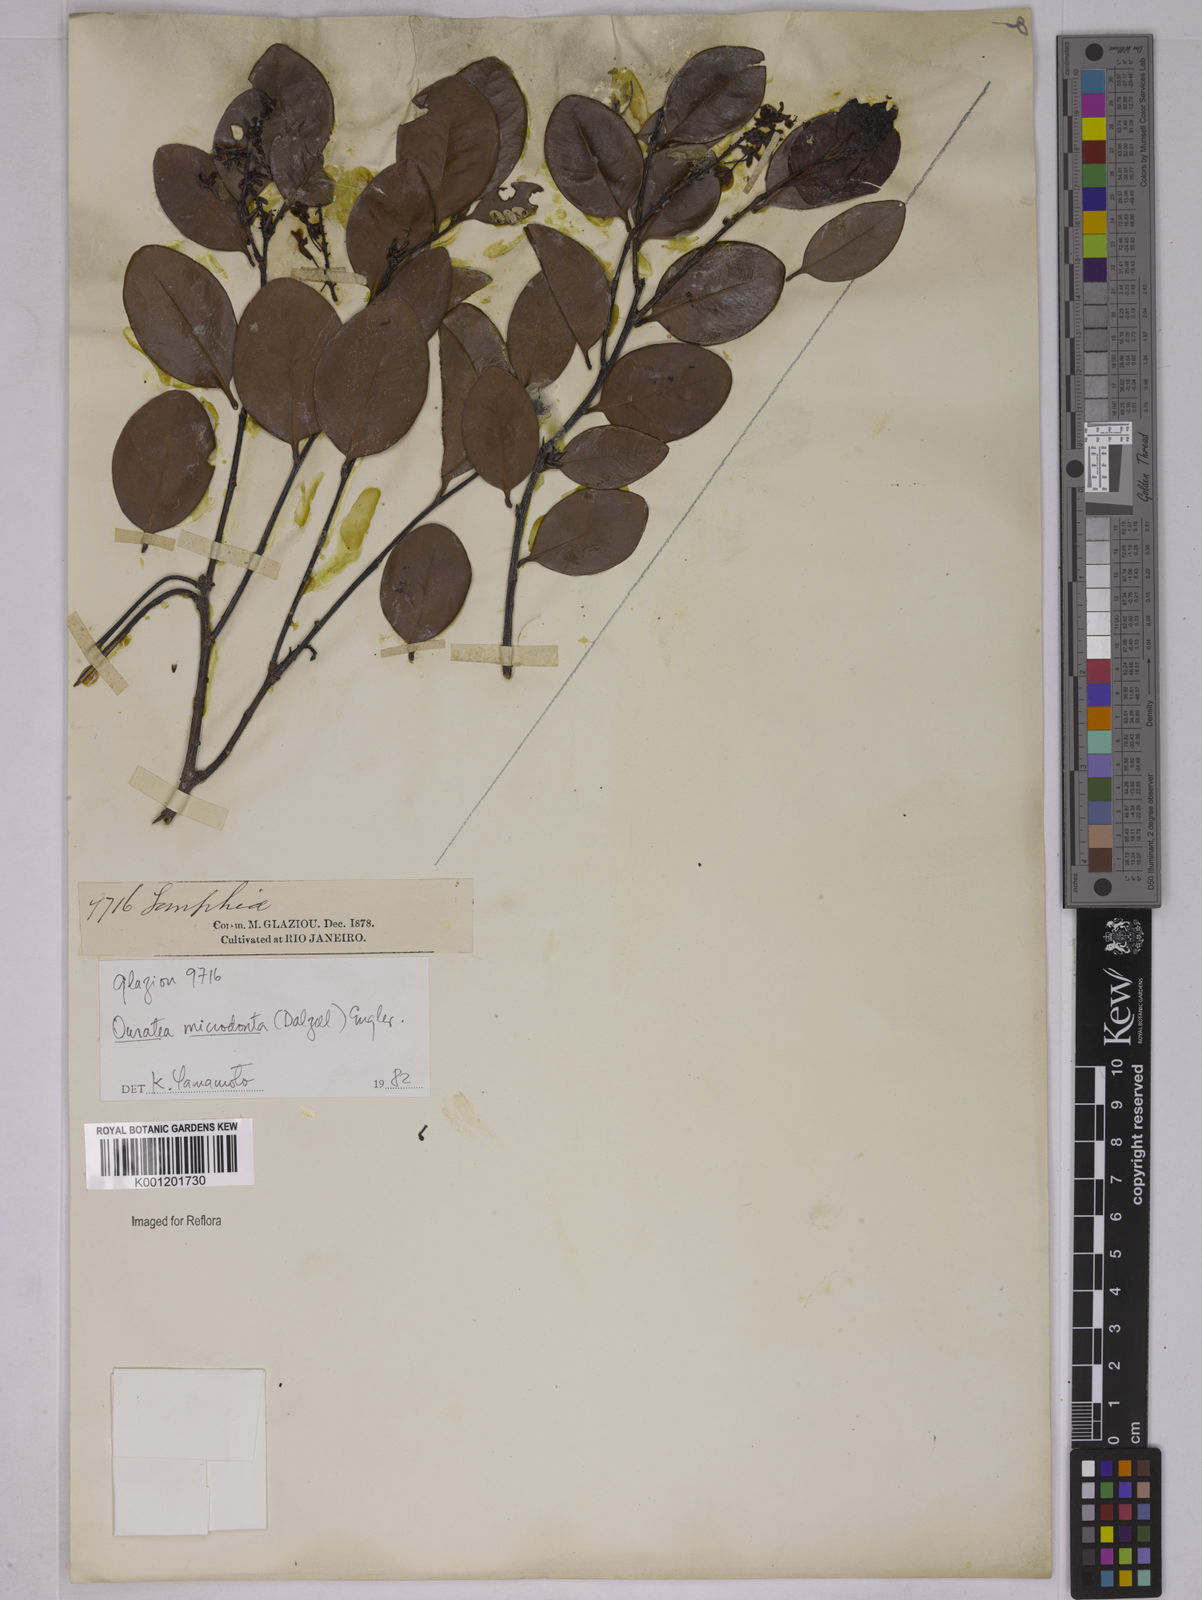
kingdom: Plantae
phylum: Tracheophyta
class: Magnoliopsida
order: Malpighiales
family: Ochnaceae
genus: Ouratea
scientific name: Ouratea microdonta
